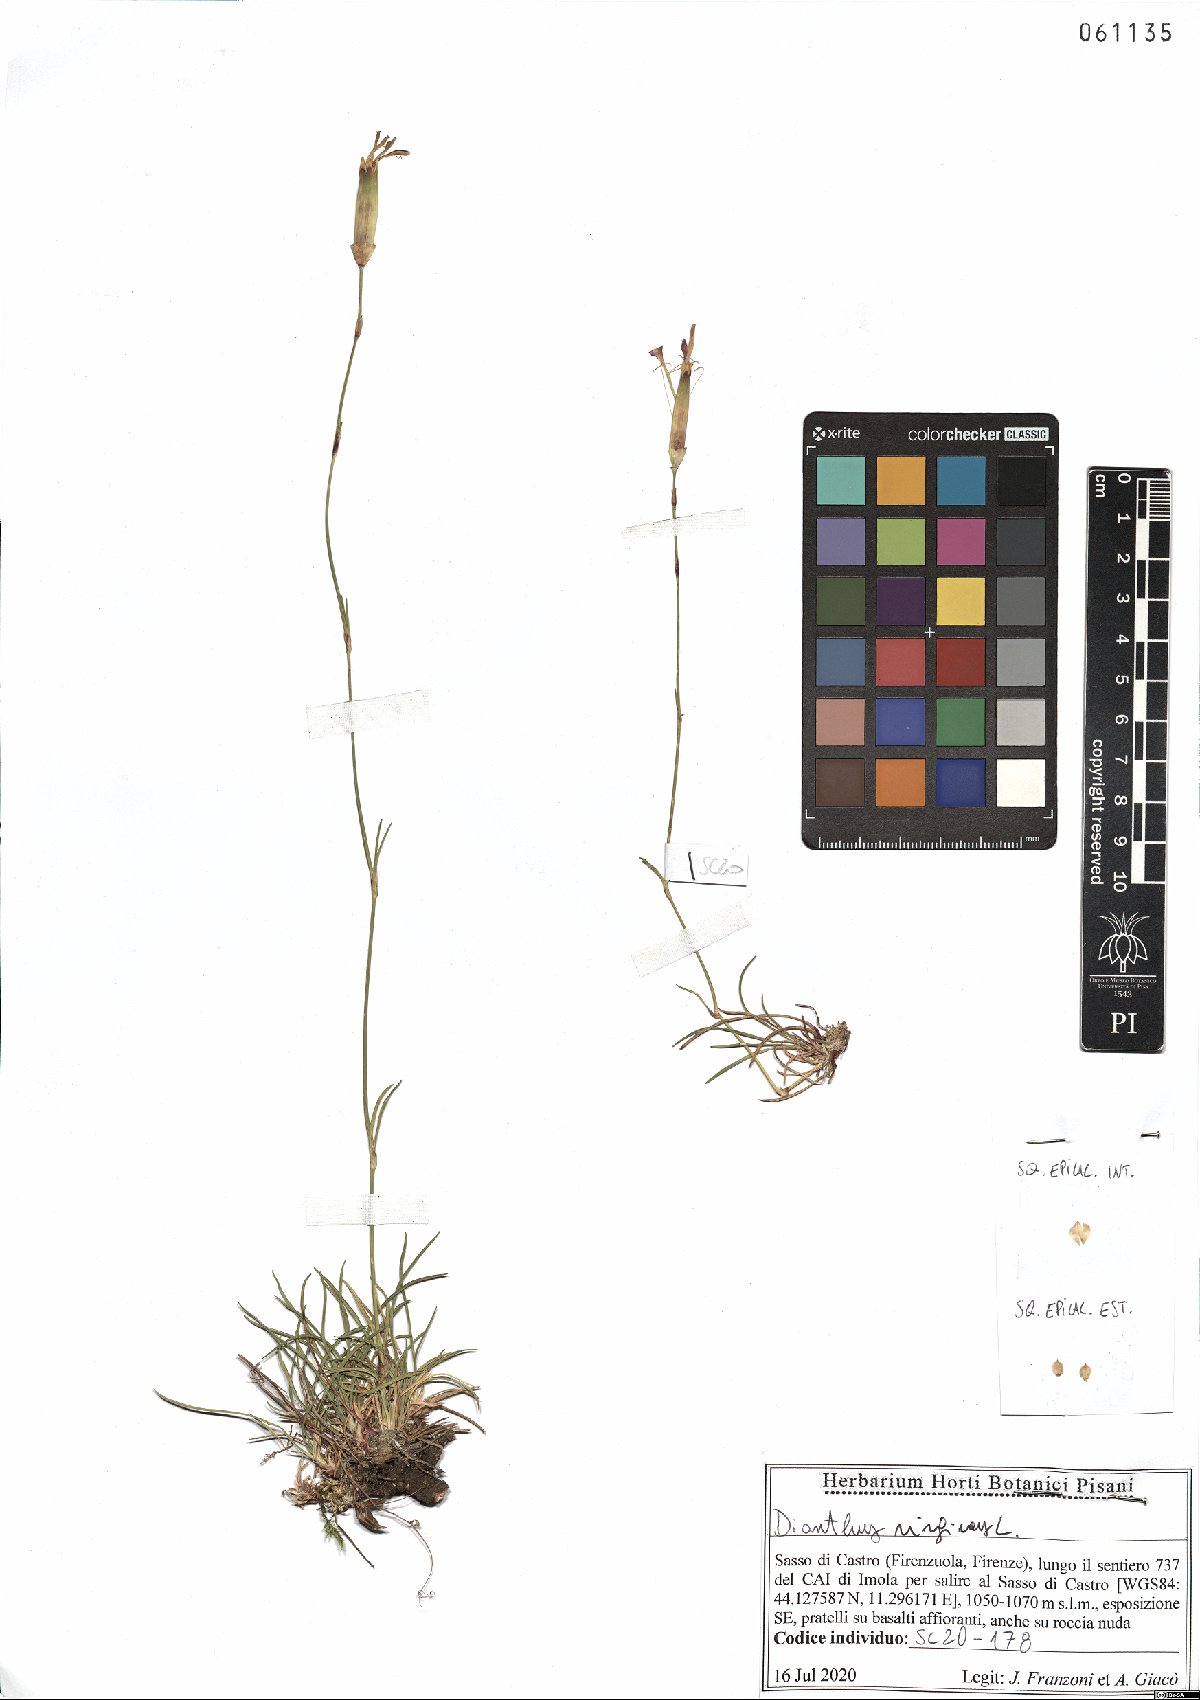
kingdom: Plantae
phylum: Tracheophyta
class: Magnoliopsida
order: Caryophyllales
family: Caryophyllaceae
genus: Dianthus
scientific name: Dianthus virgineus
